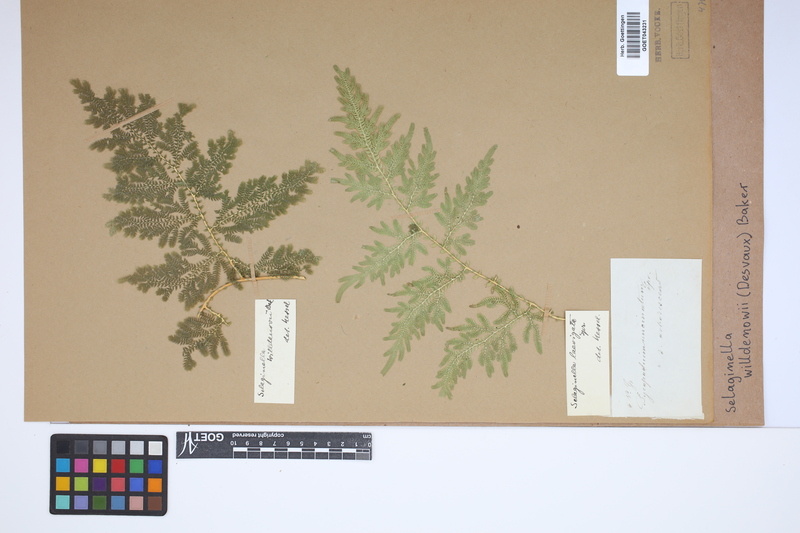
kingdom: Plantae
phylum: Tracheophyta
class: Lycopodiopsida
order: Selaginellales
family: Selaginellaceae
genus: Selaginella
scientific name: Selaginella willdenowii
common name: Willdenow's spikemoss
